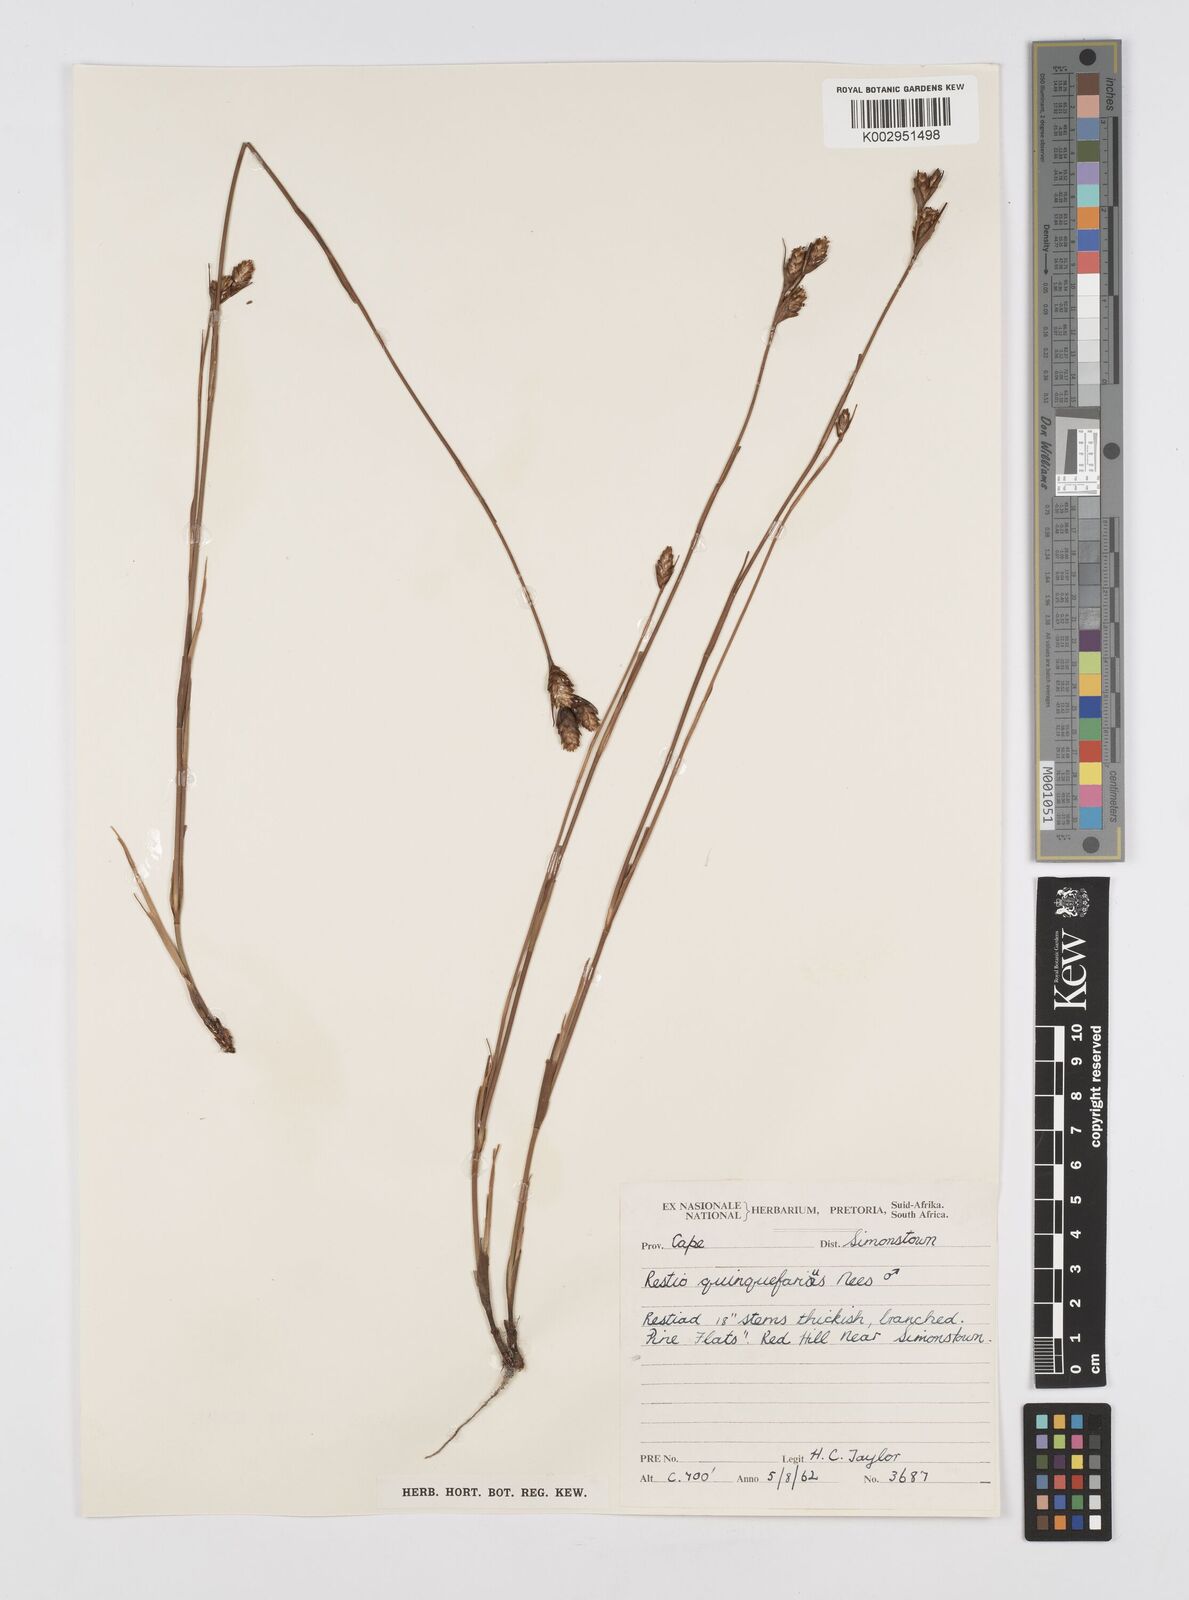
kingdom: Plantae
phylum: Tracheophyta
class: Liliopsida
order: Poales
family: Restionaceae
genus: Restio
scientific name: Restio quinquefarius
